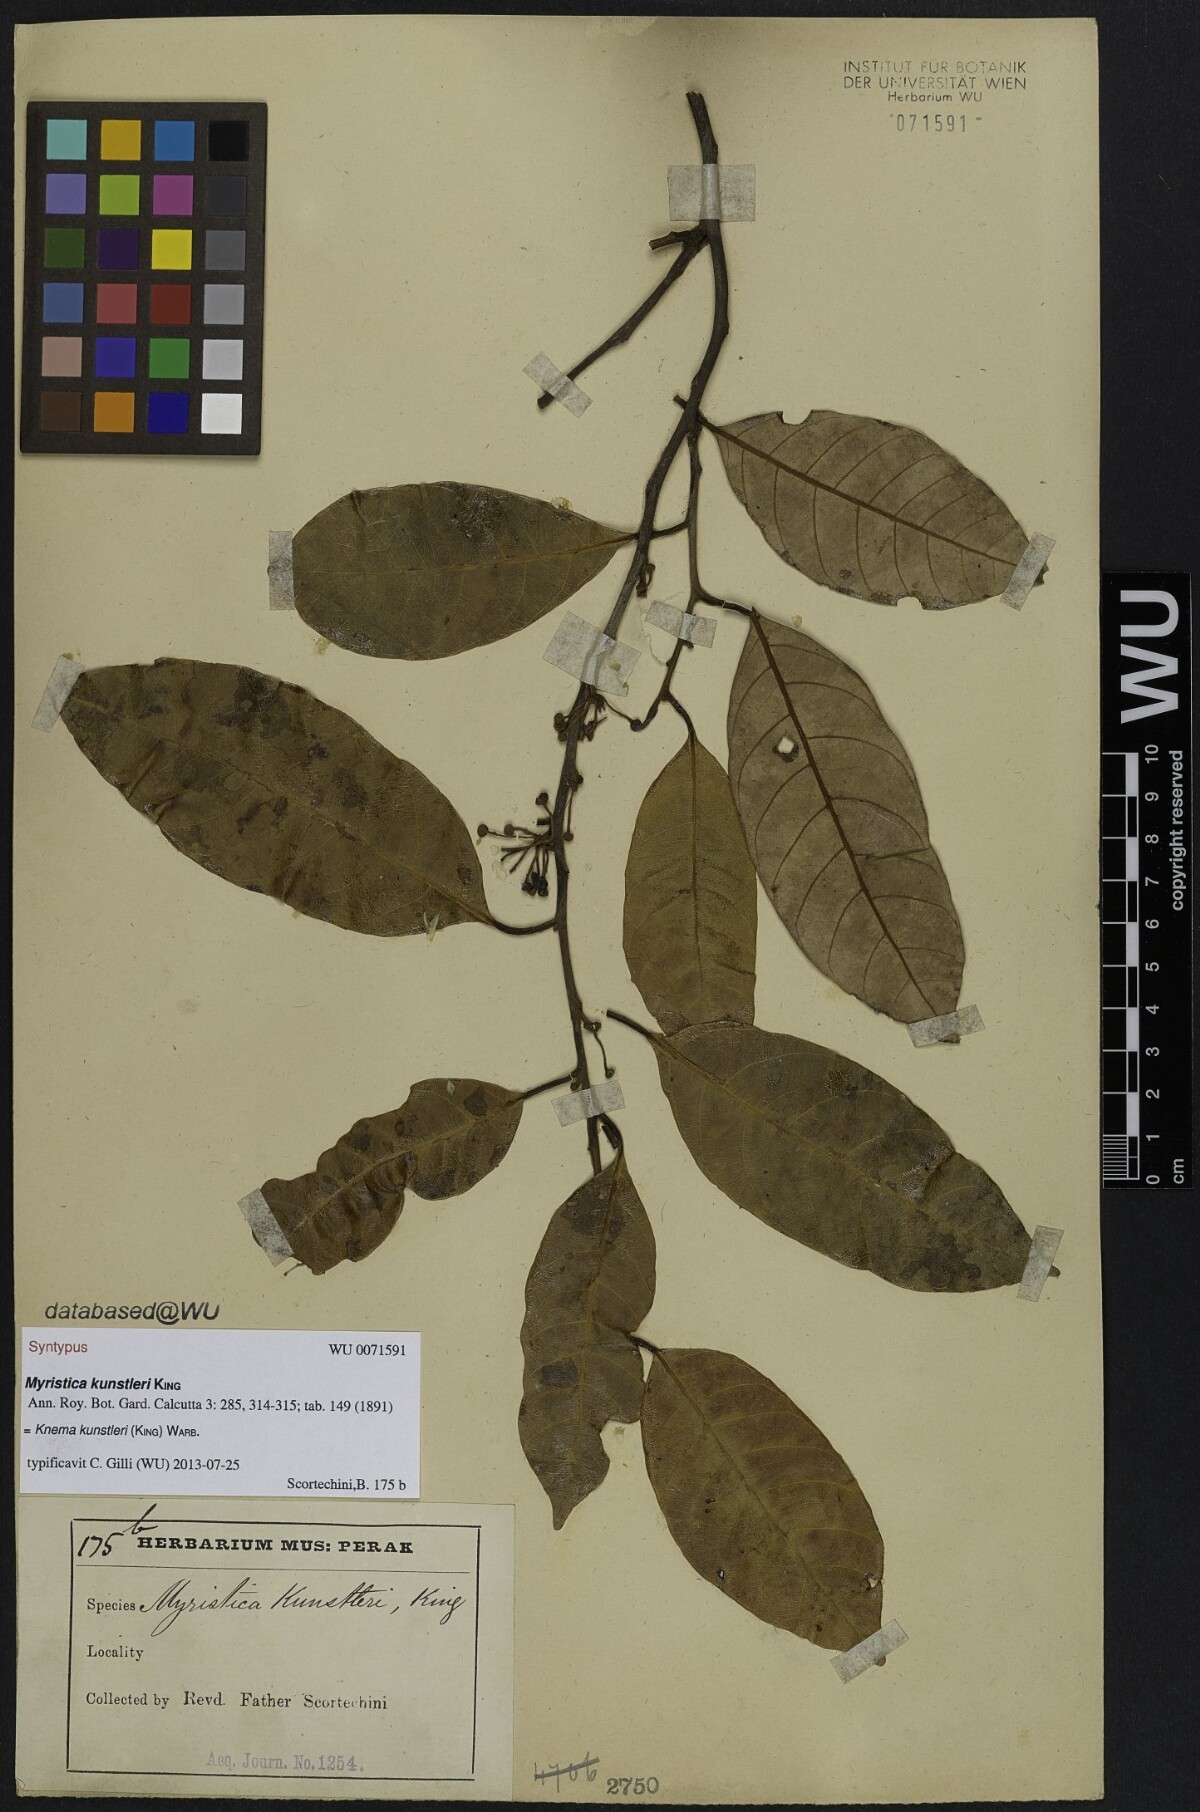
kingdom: Plantae
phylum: Tracheophyta
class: Magnoliopsida
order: Magnoliales
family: Myristicaceae
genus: Knema
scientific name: Knema kunstleri
